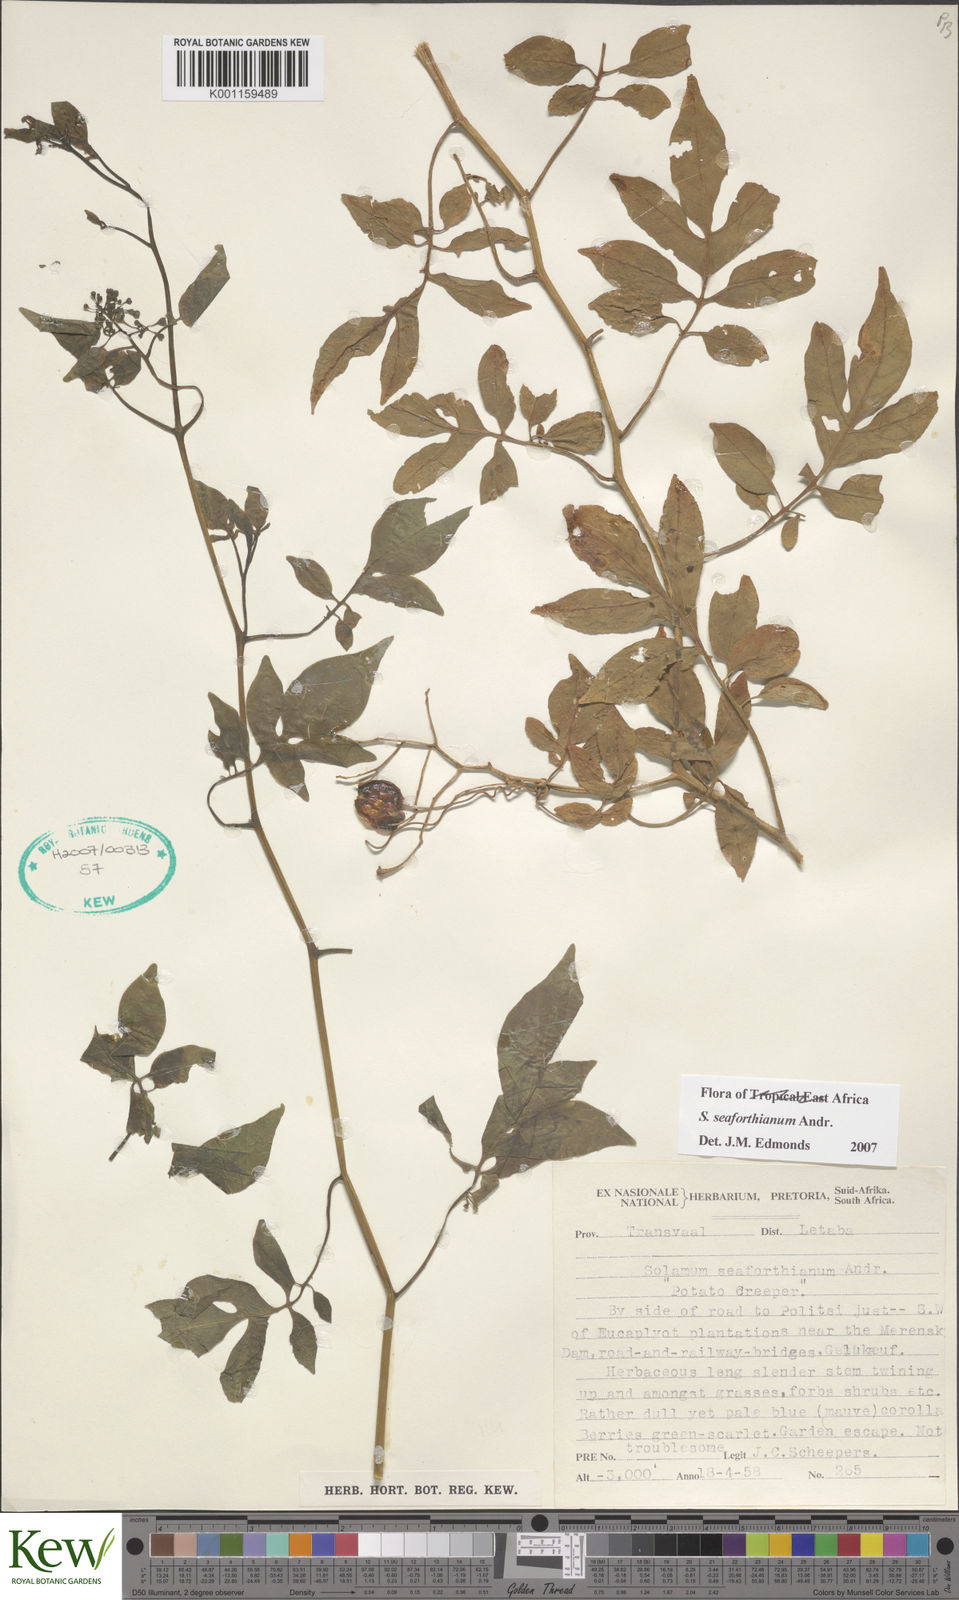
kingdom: Plantae
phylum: Tracheophyta
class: Magnoliopsida
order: Solanales
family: Solanaceae
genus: Solanum
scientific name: Solanum seaforthianum
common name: Brazilian nightshade
